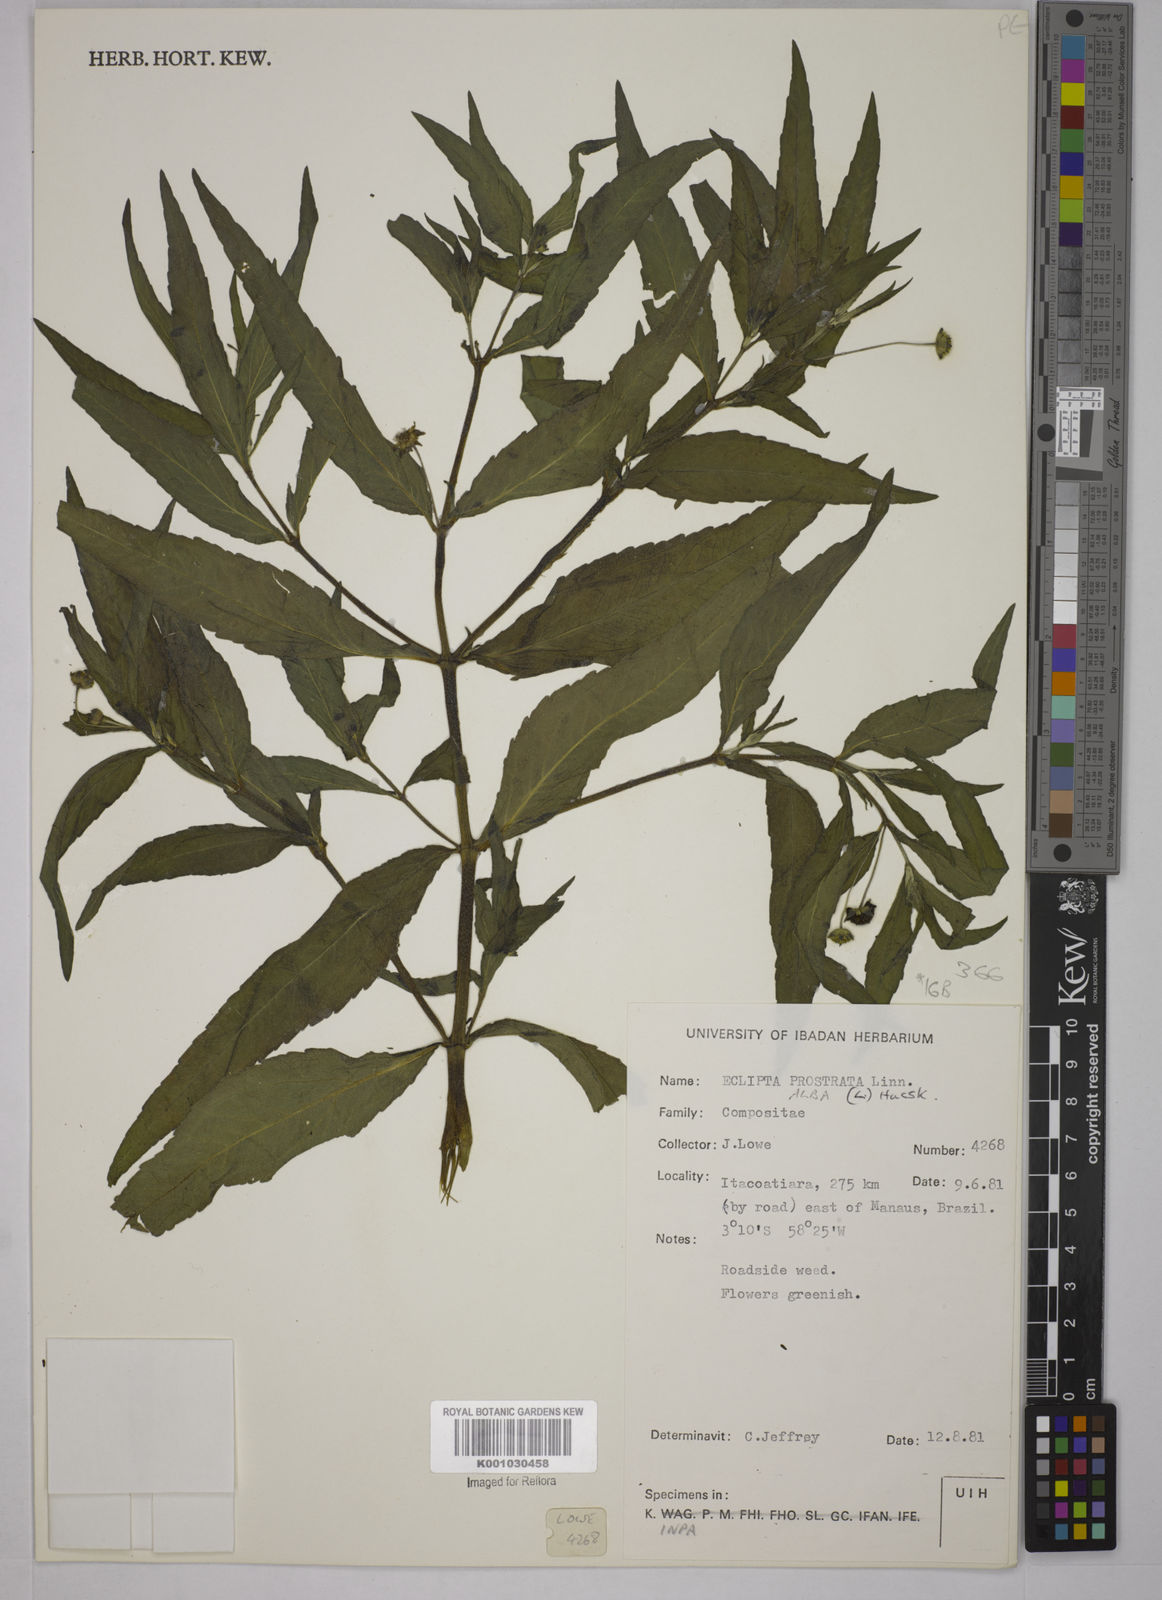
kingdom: Plantae
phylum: Tracheophyta
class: Magnoliopsida
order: Asterales
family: Asteraceae
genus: Eclipta
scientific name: Eclipta prostrata
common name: False daisy
